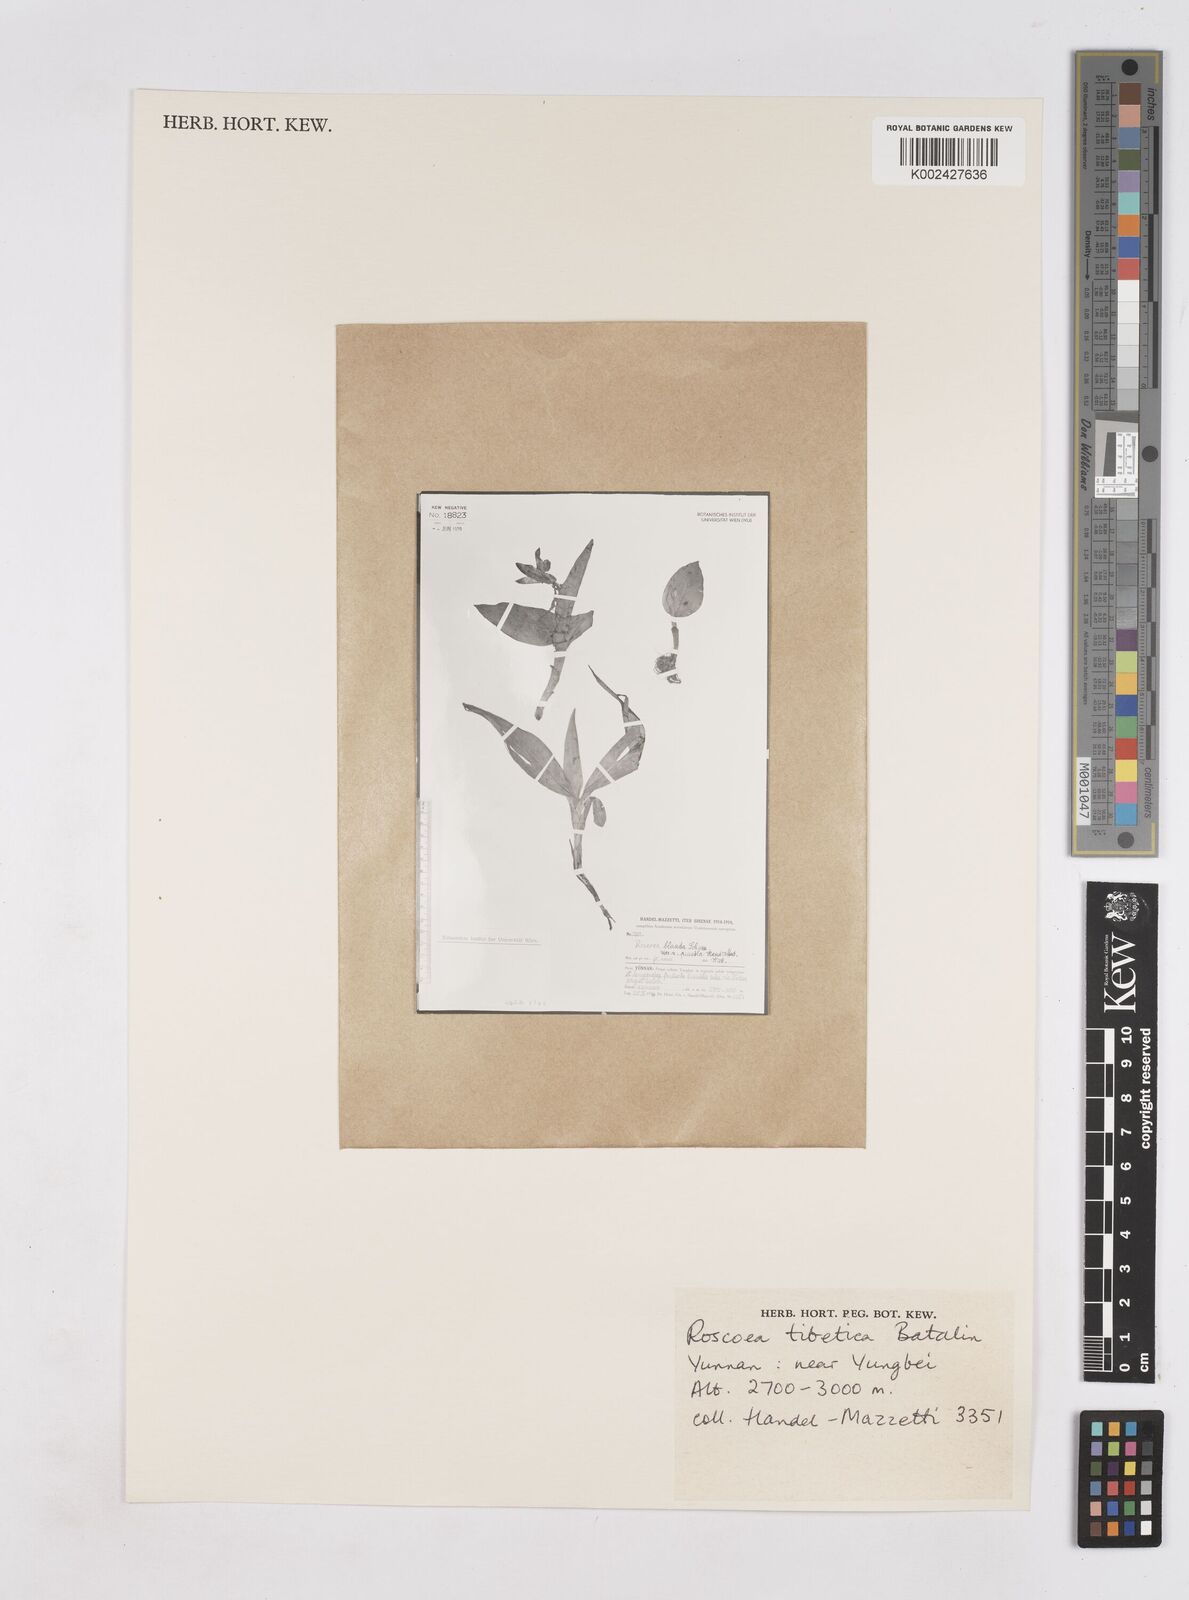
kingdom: Plantae
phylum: Tracheophyta
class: Liliopsida
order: Zingiberales
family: Zingiberaceae
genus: Roscoea
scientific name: Roscoea tibetica
